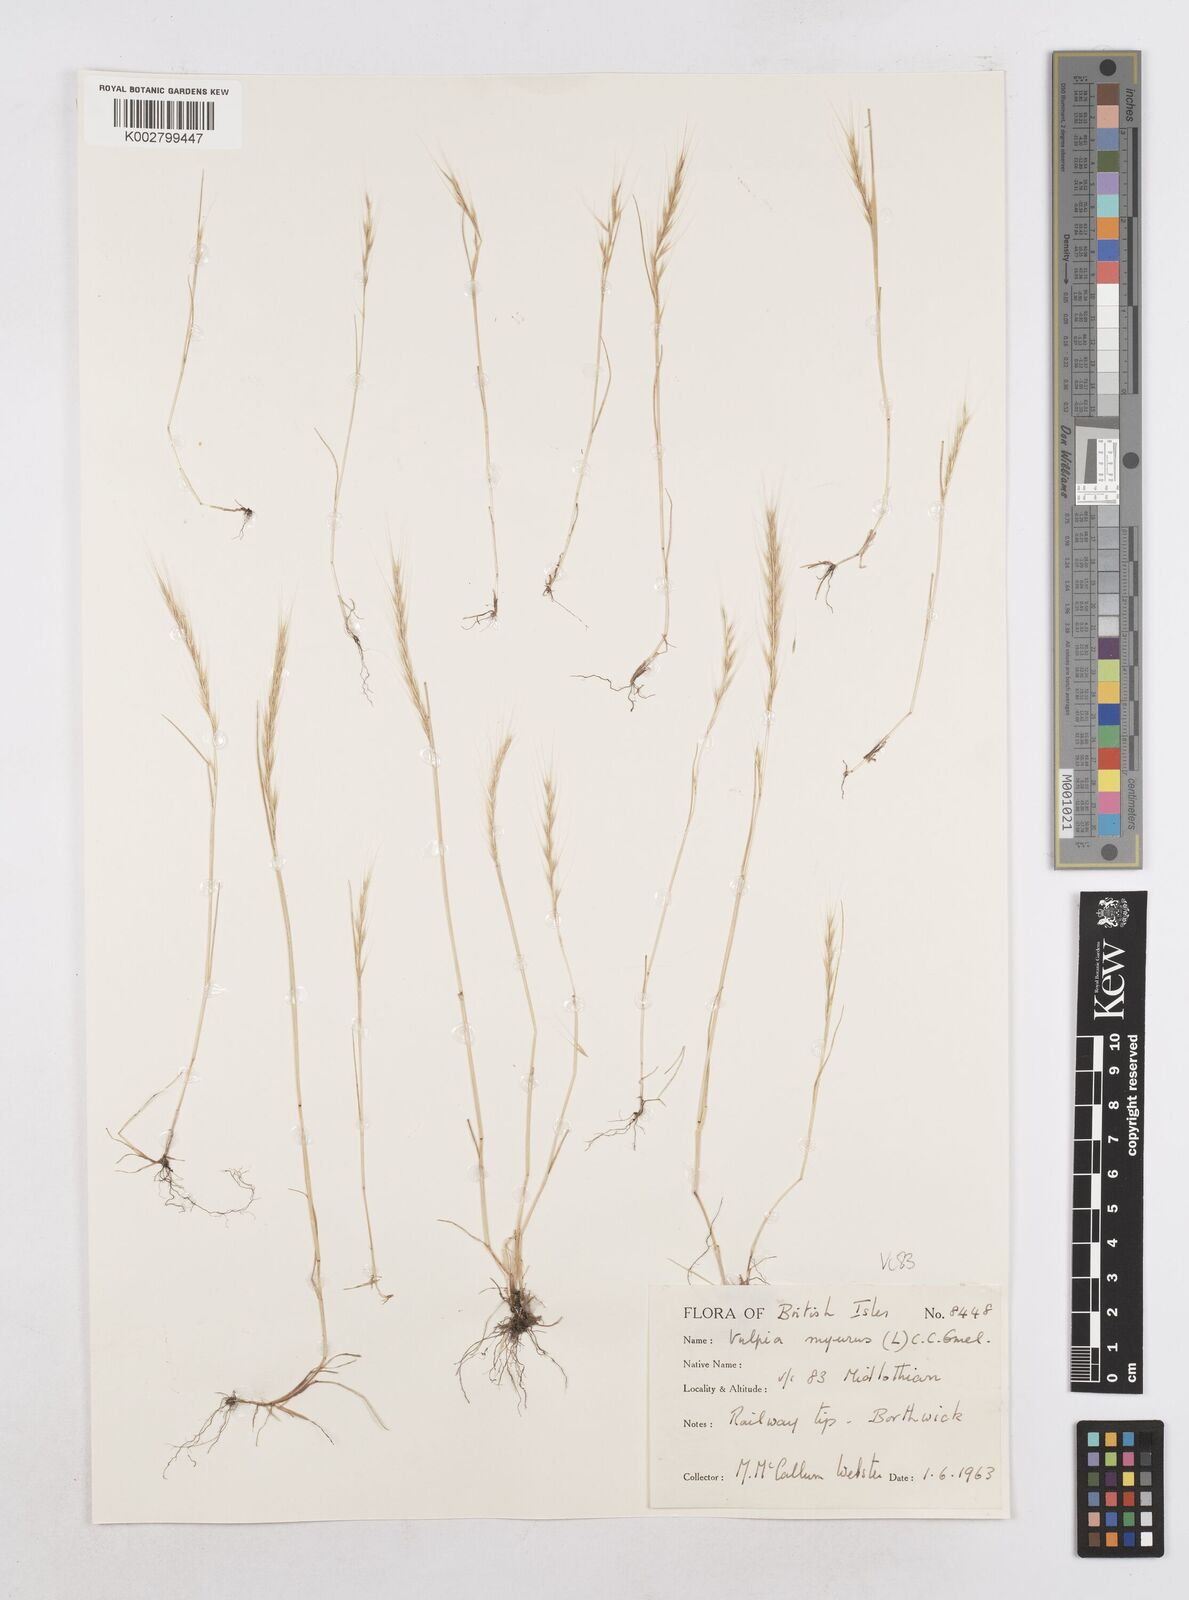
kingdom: Plantae
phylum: Tracheophyta
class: Liliopsida
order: Poales
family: Poaceae
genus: Festuca
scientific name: Festuca myuros
